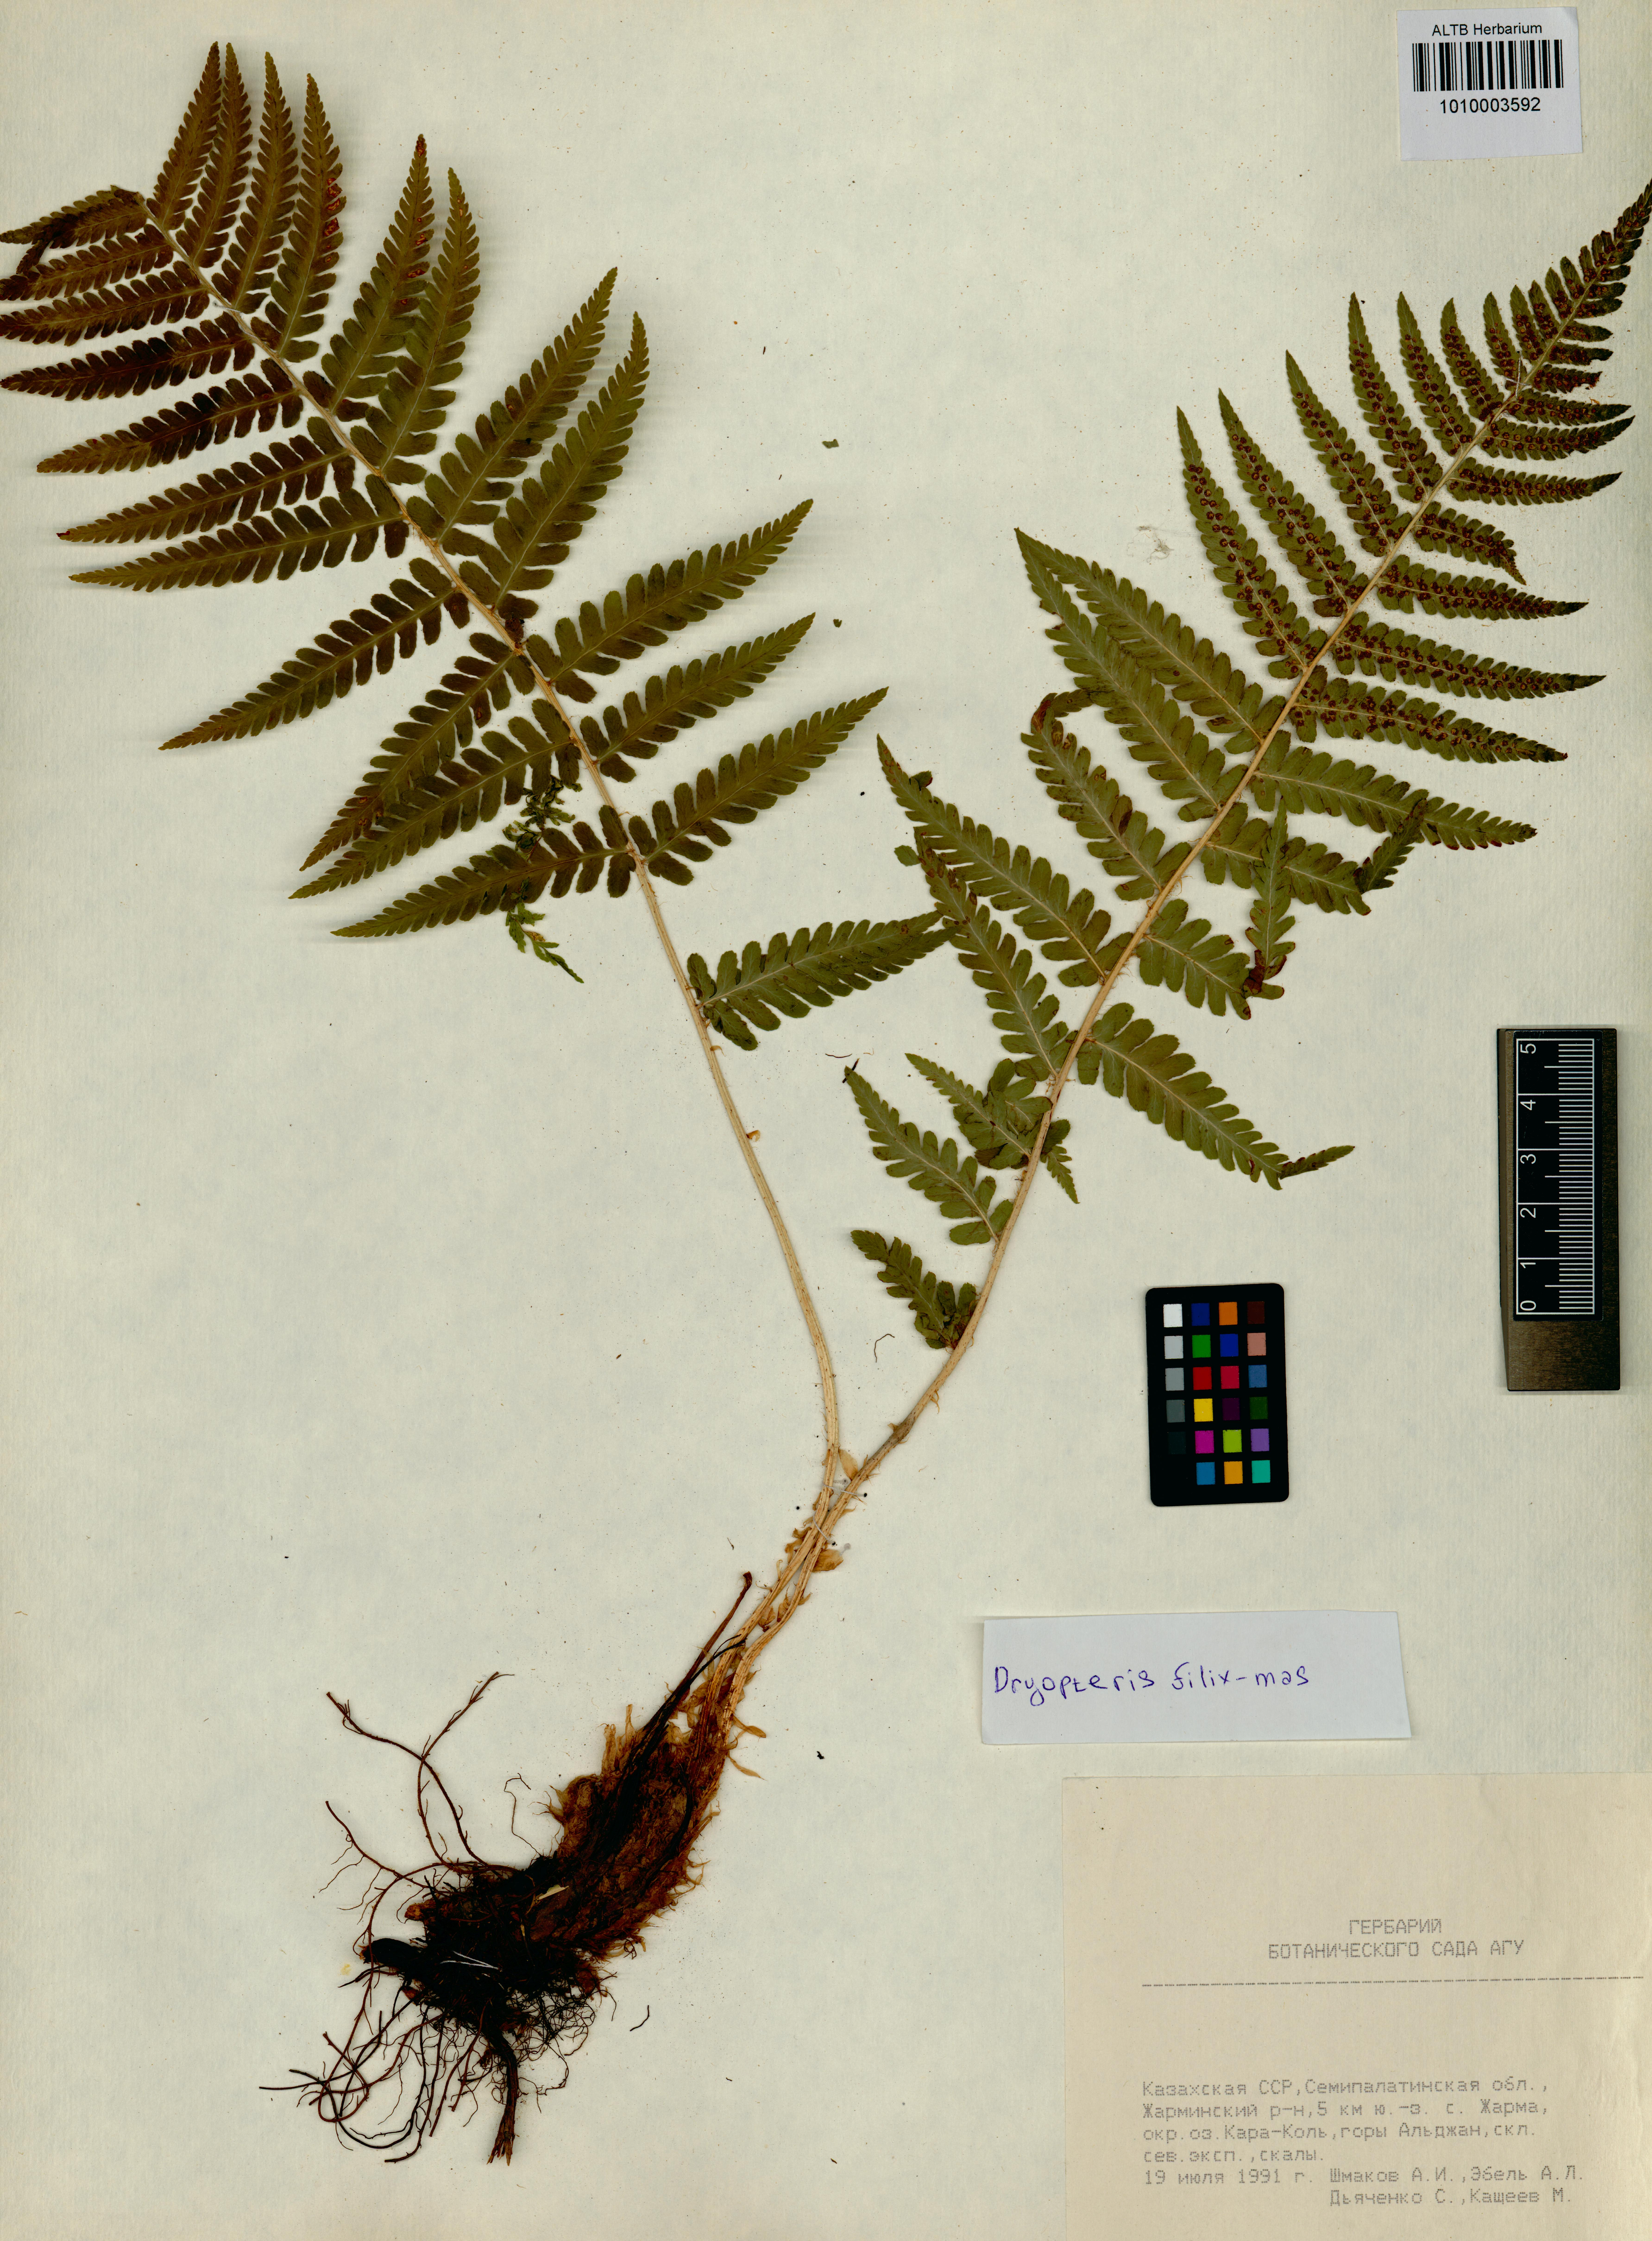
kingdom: Plantae
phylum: Tracheophyta
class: Polypodiopsida
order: Polypodiales
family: Dryopteridaceae
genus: Dryopteris
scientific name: Dryopteris filix-mas
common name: Male fern
